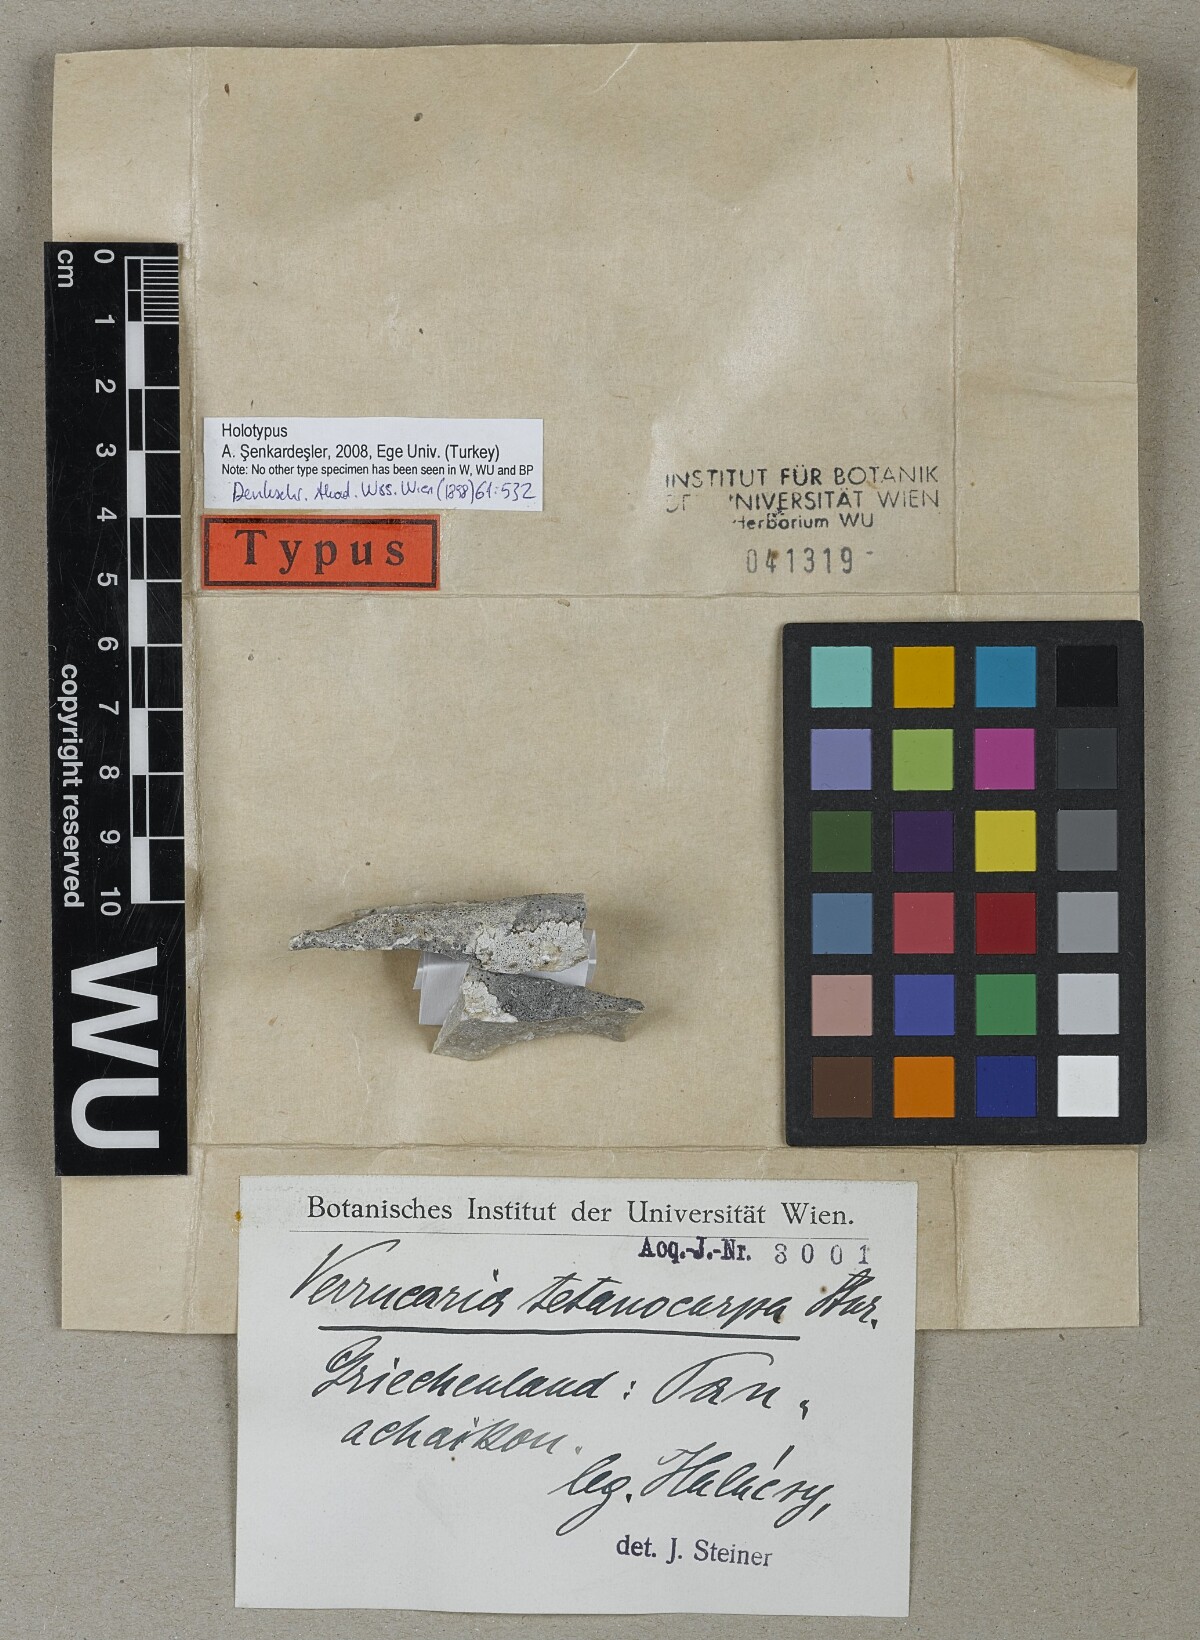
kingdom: Fungi
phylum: Ascomycota
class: Eurotiomycetes
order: Verrucariales
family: Verrucariaceae
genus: Verrucaria
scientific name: Verrucaria
